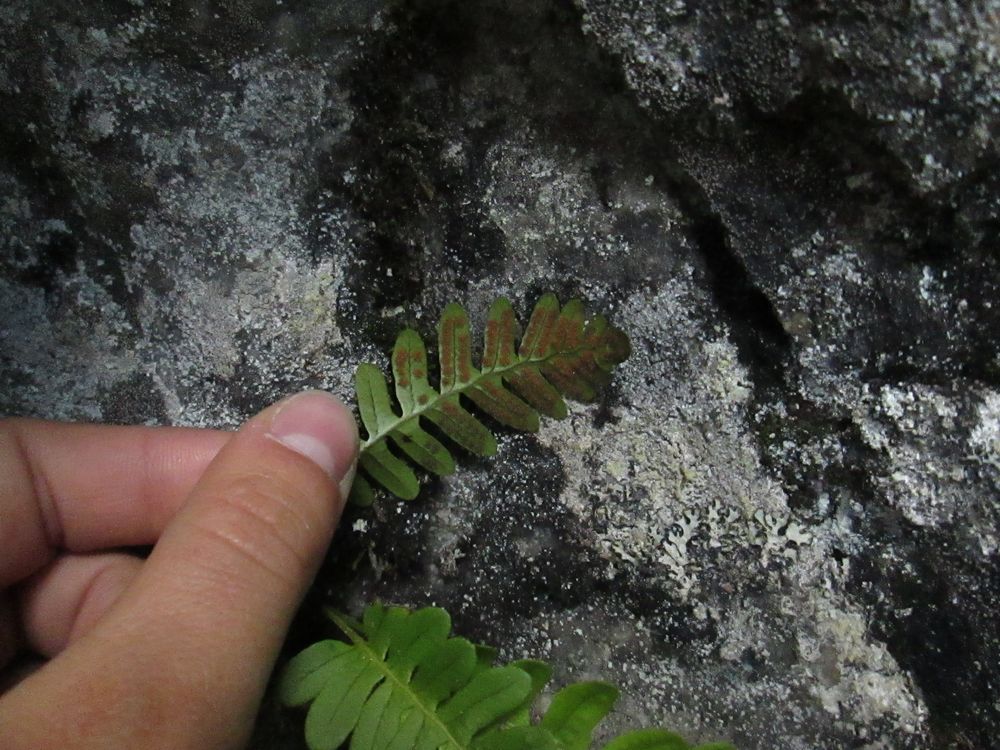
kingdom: Plantae
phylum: Tracheophyta
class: Polypodiopsida
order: Polypodiales
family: Polypodiaceae
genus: Polypodium
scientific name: Polypodium vulgare
